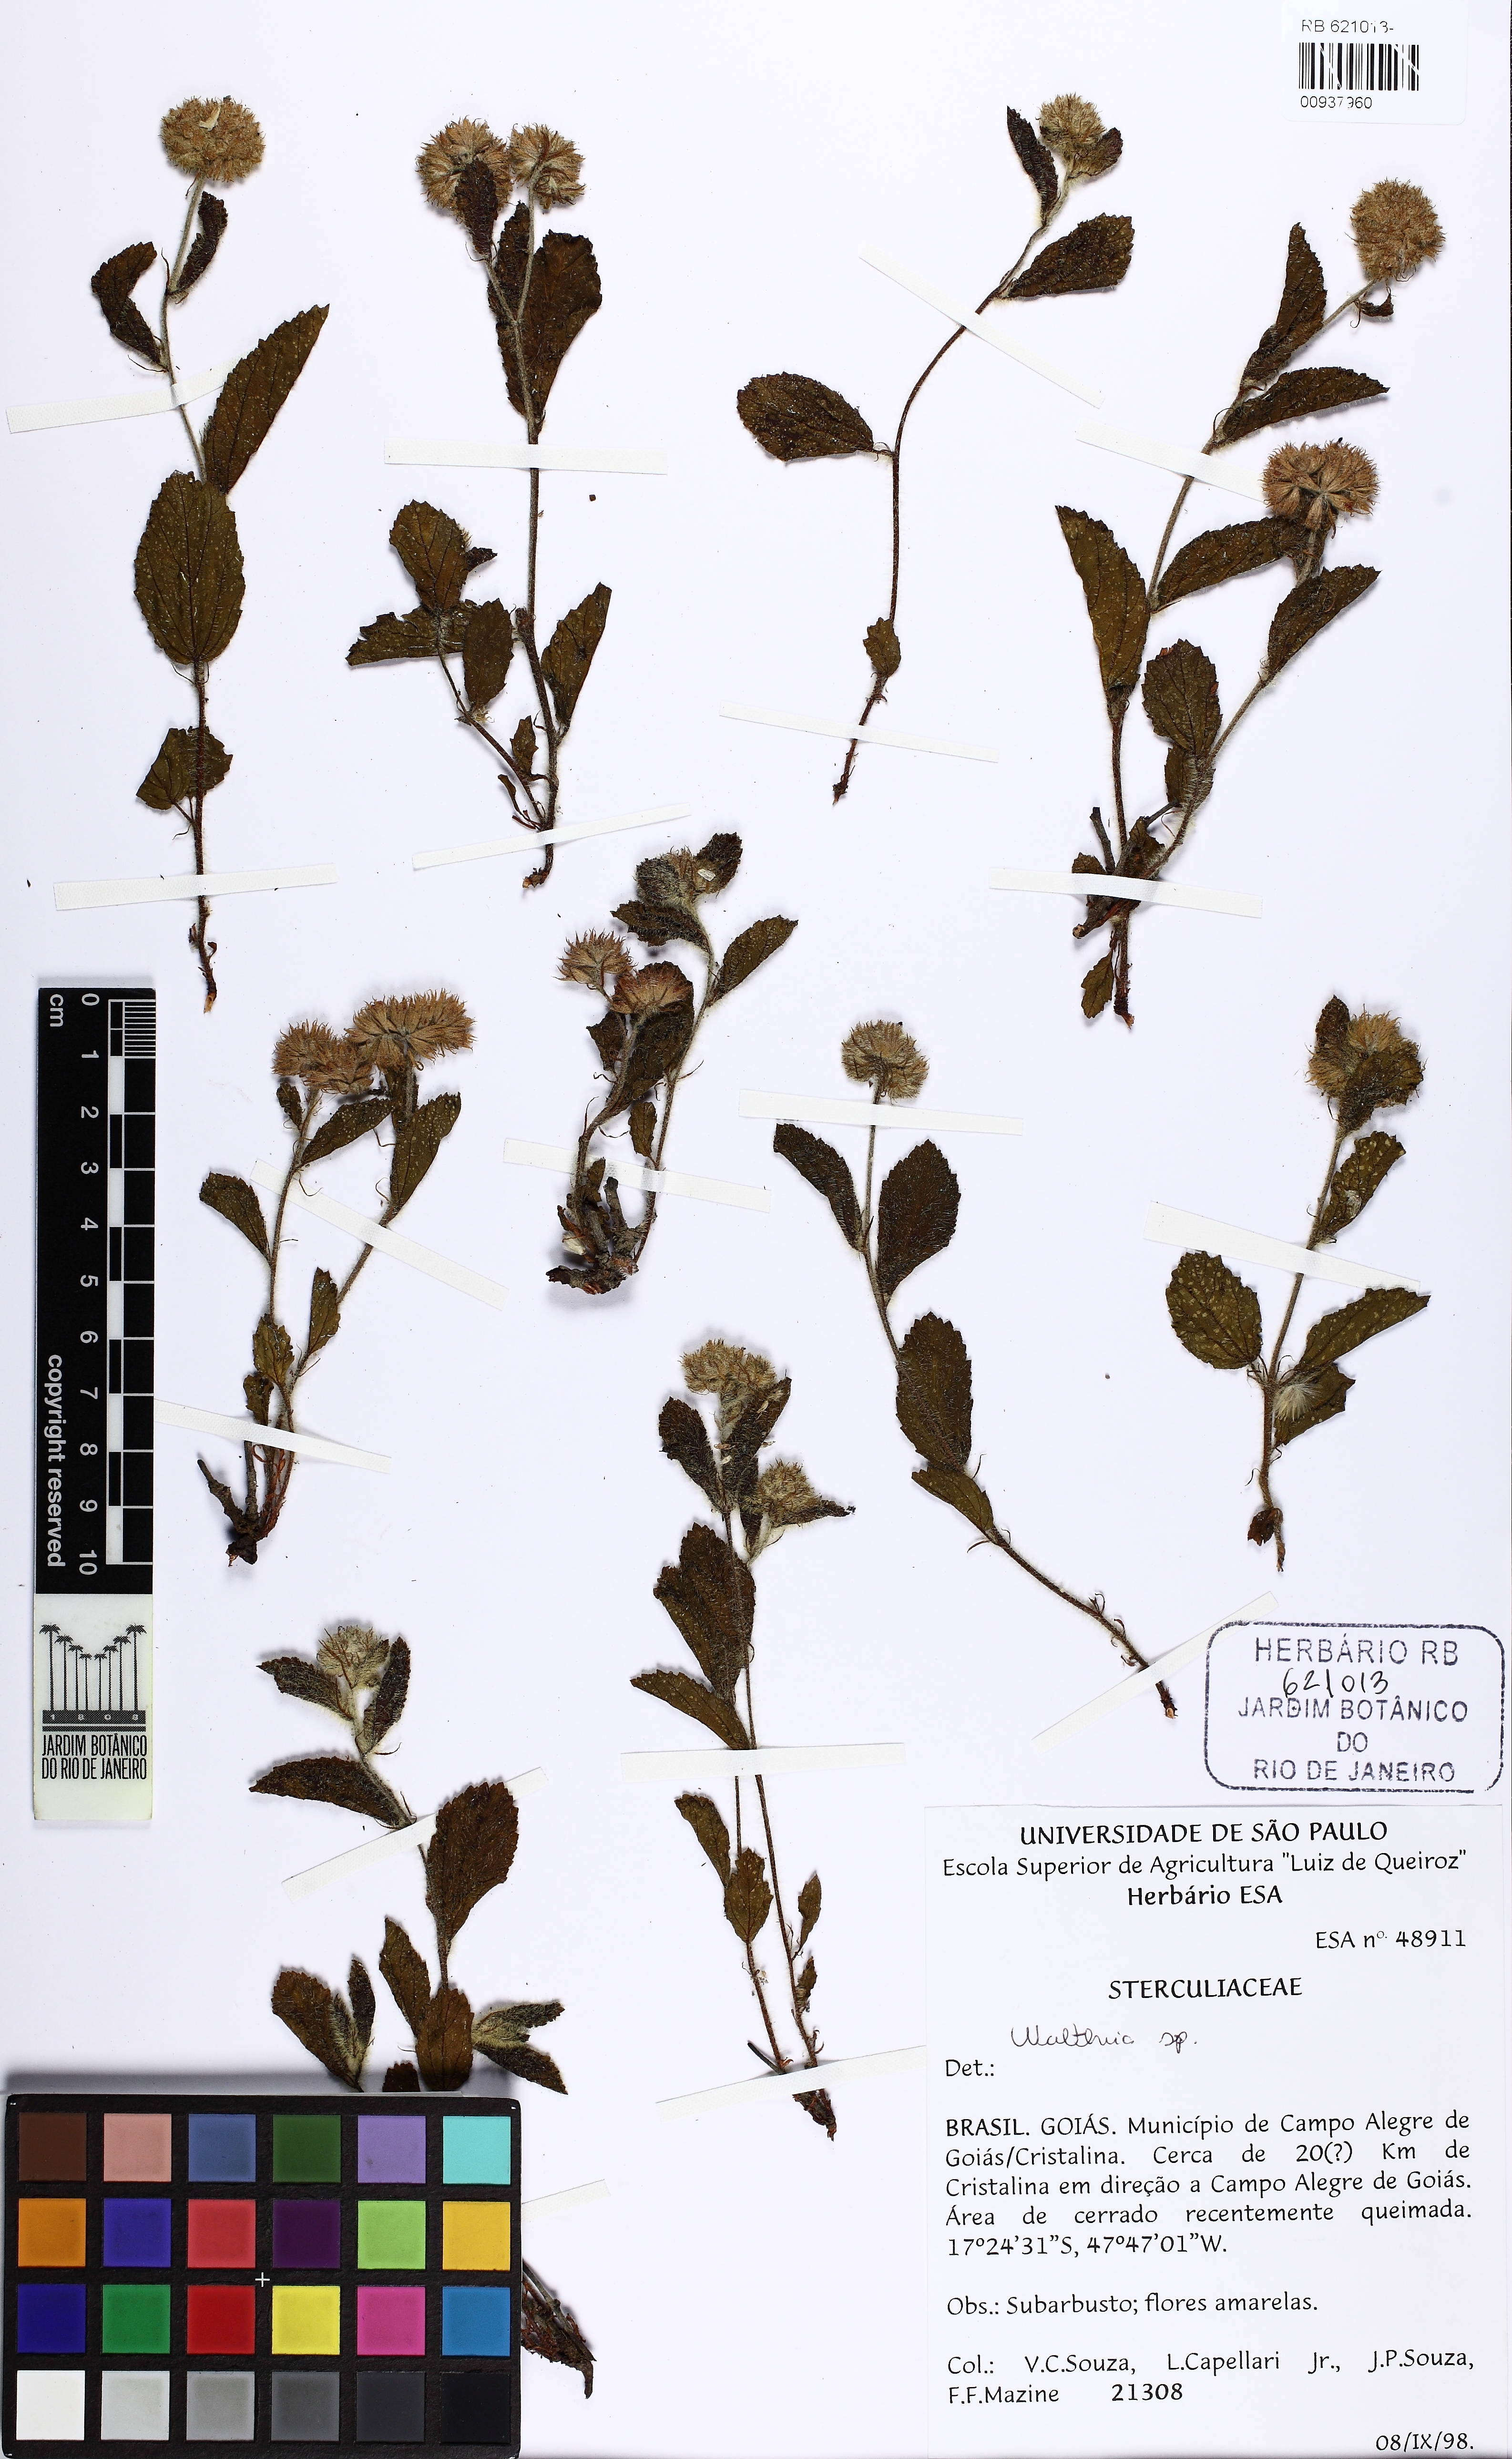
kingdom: Plantae
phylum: Tracheophyta
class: Magnoliopsida
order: Malvales
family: Malvaceae
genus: Waltheria
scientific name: Waltheria communis
